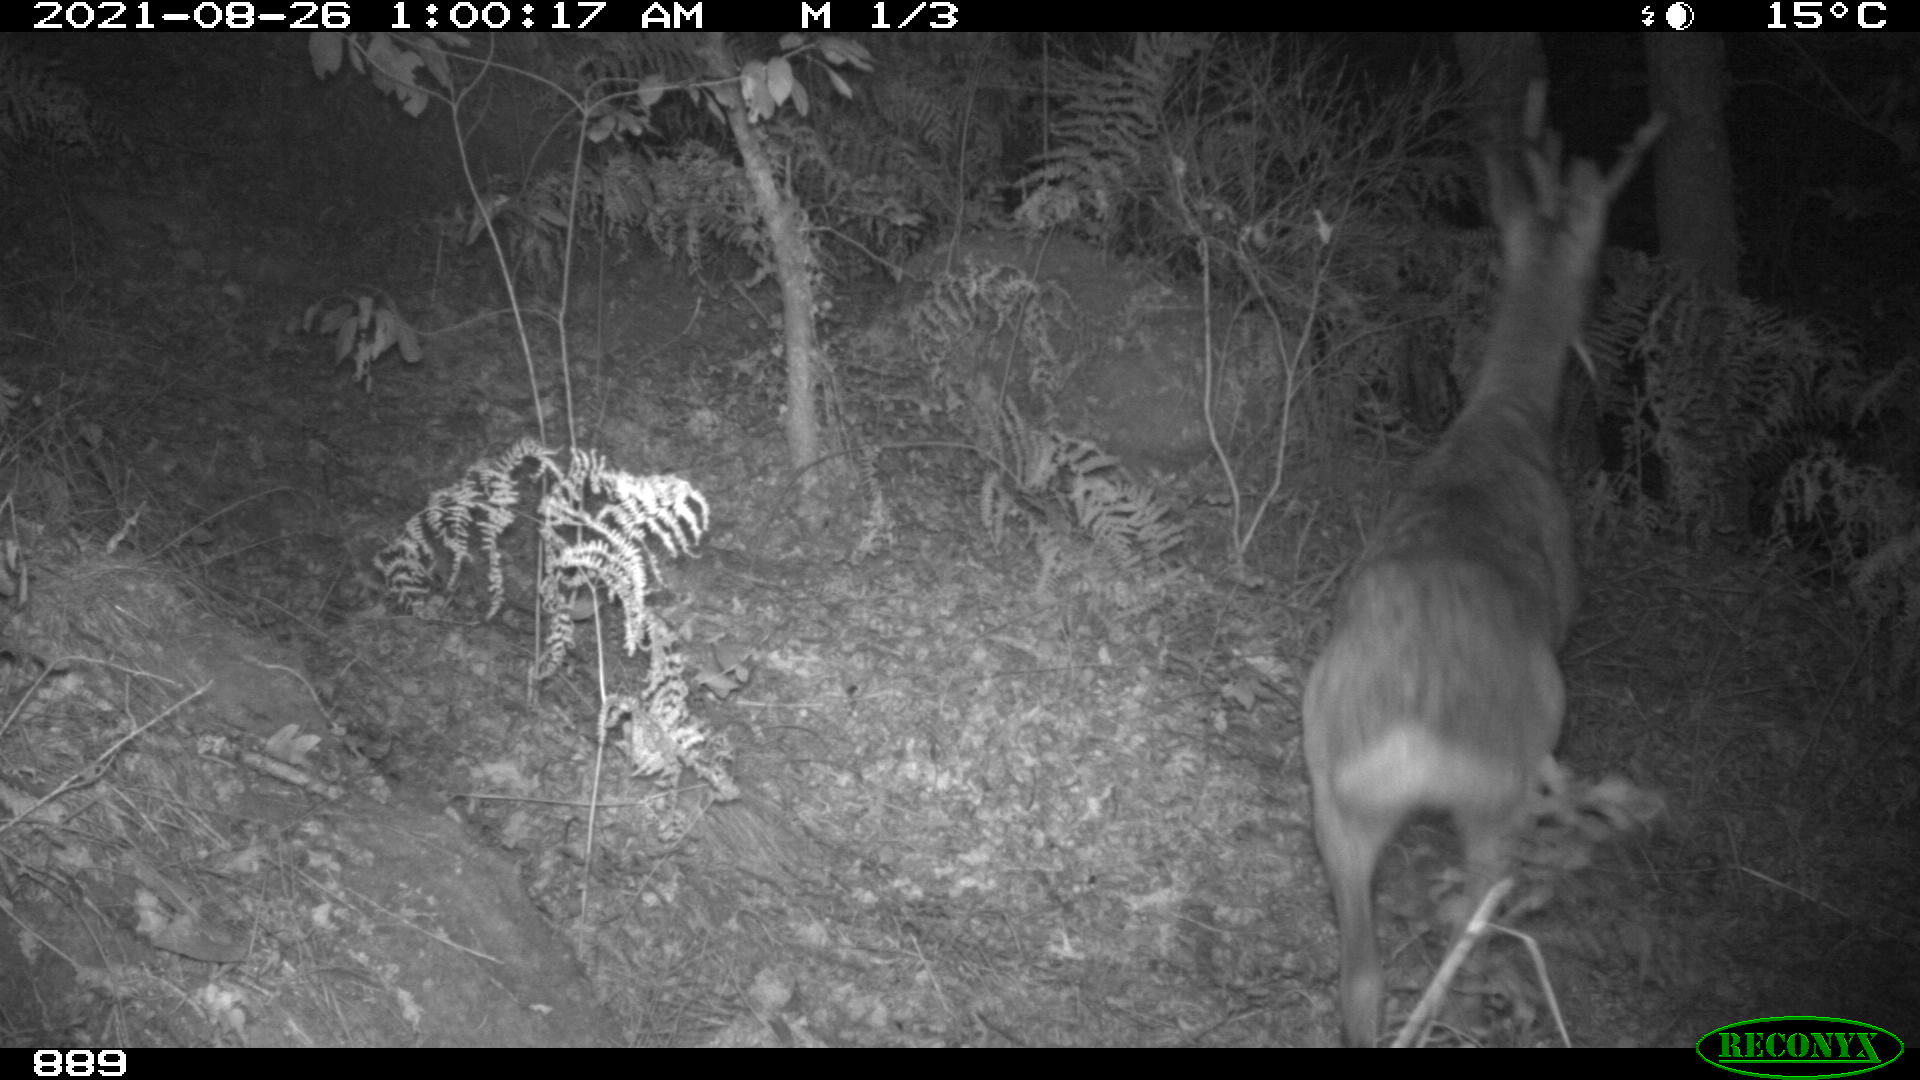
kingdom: Animalia
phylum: Chordata
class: Mammalia
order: Artiodactyla
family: Cervidae
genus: Capreolus
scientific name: Capreolus capreolus
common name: Western roe deer
